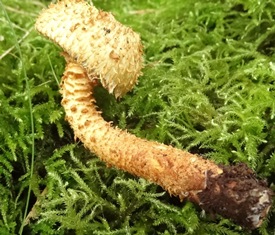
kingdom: Fungi
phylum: Basidiomycota
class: Agaricomycetes
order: Agaricales
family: Strophariaceae
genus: Pholiota
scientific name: Pholiota squarrosa
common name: krumskællet skælhat
